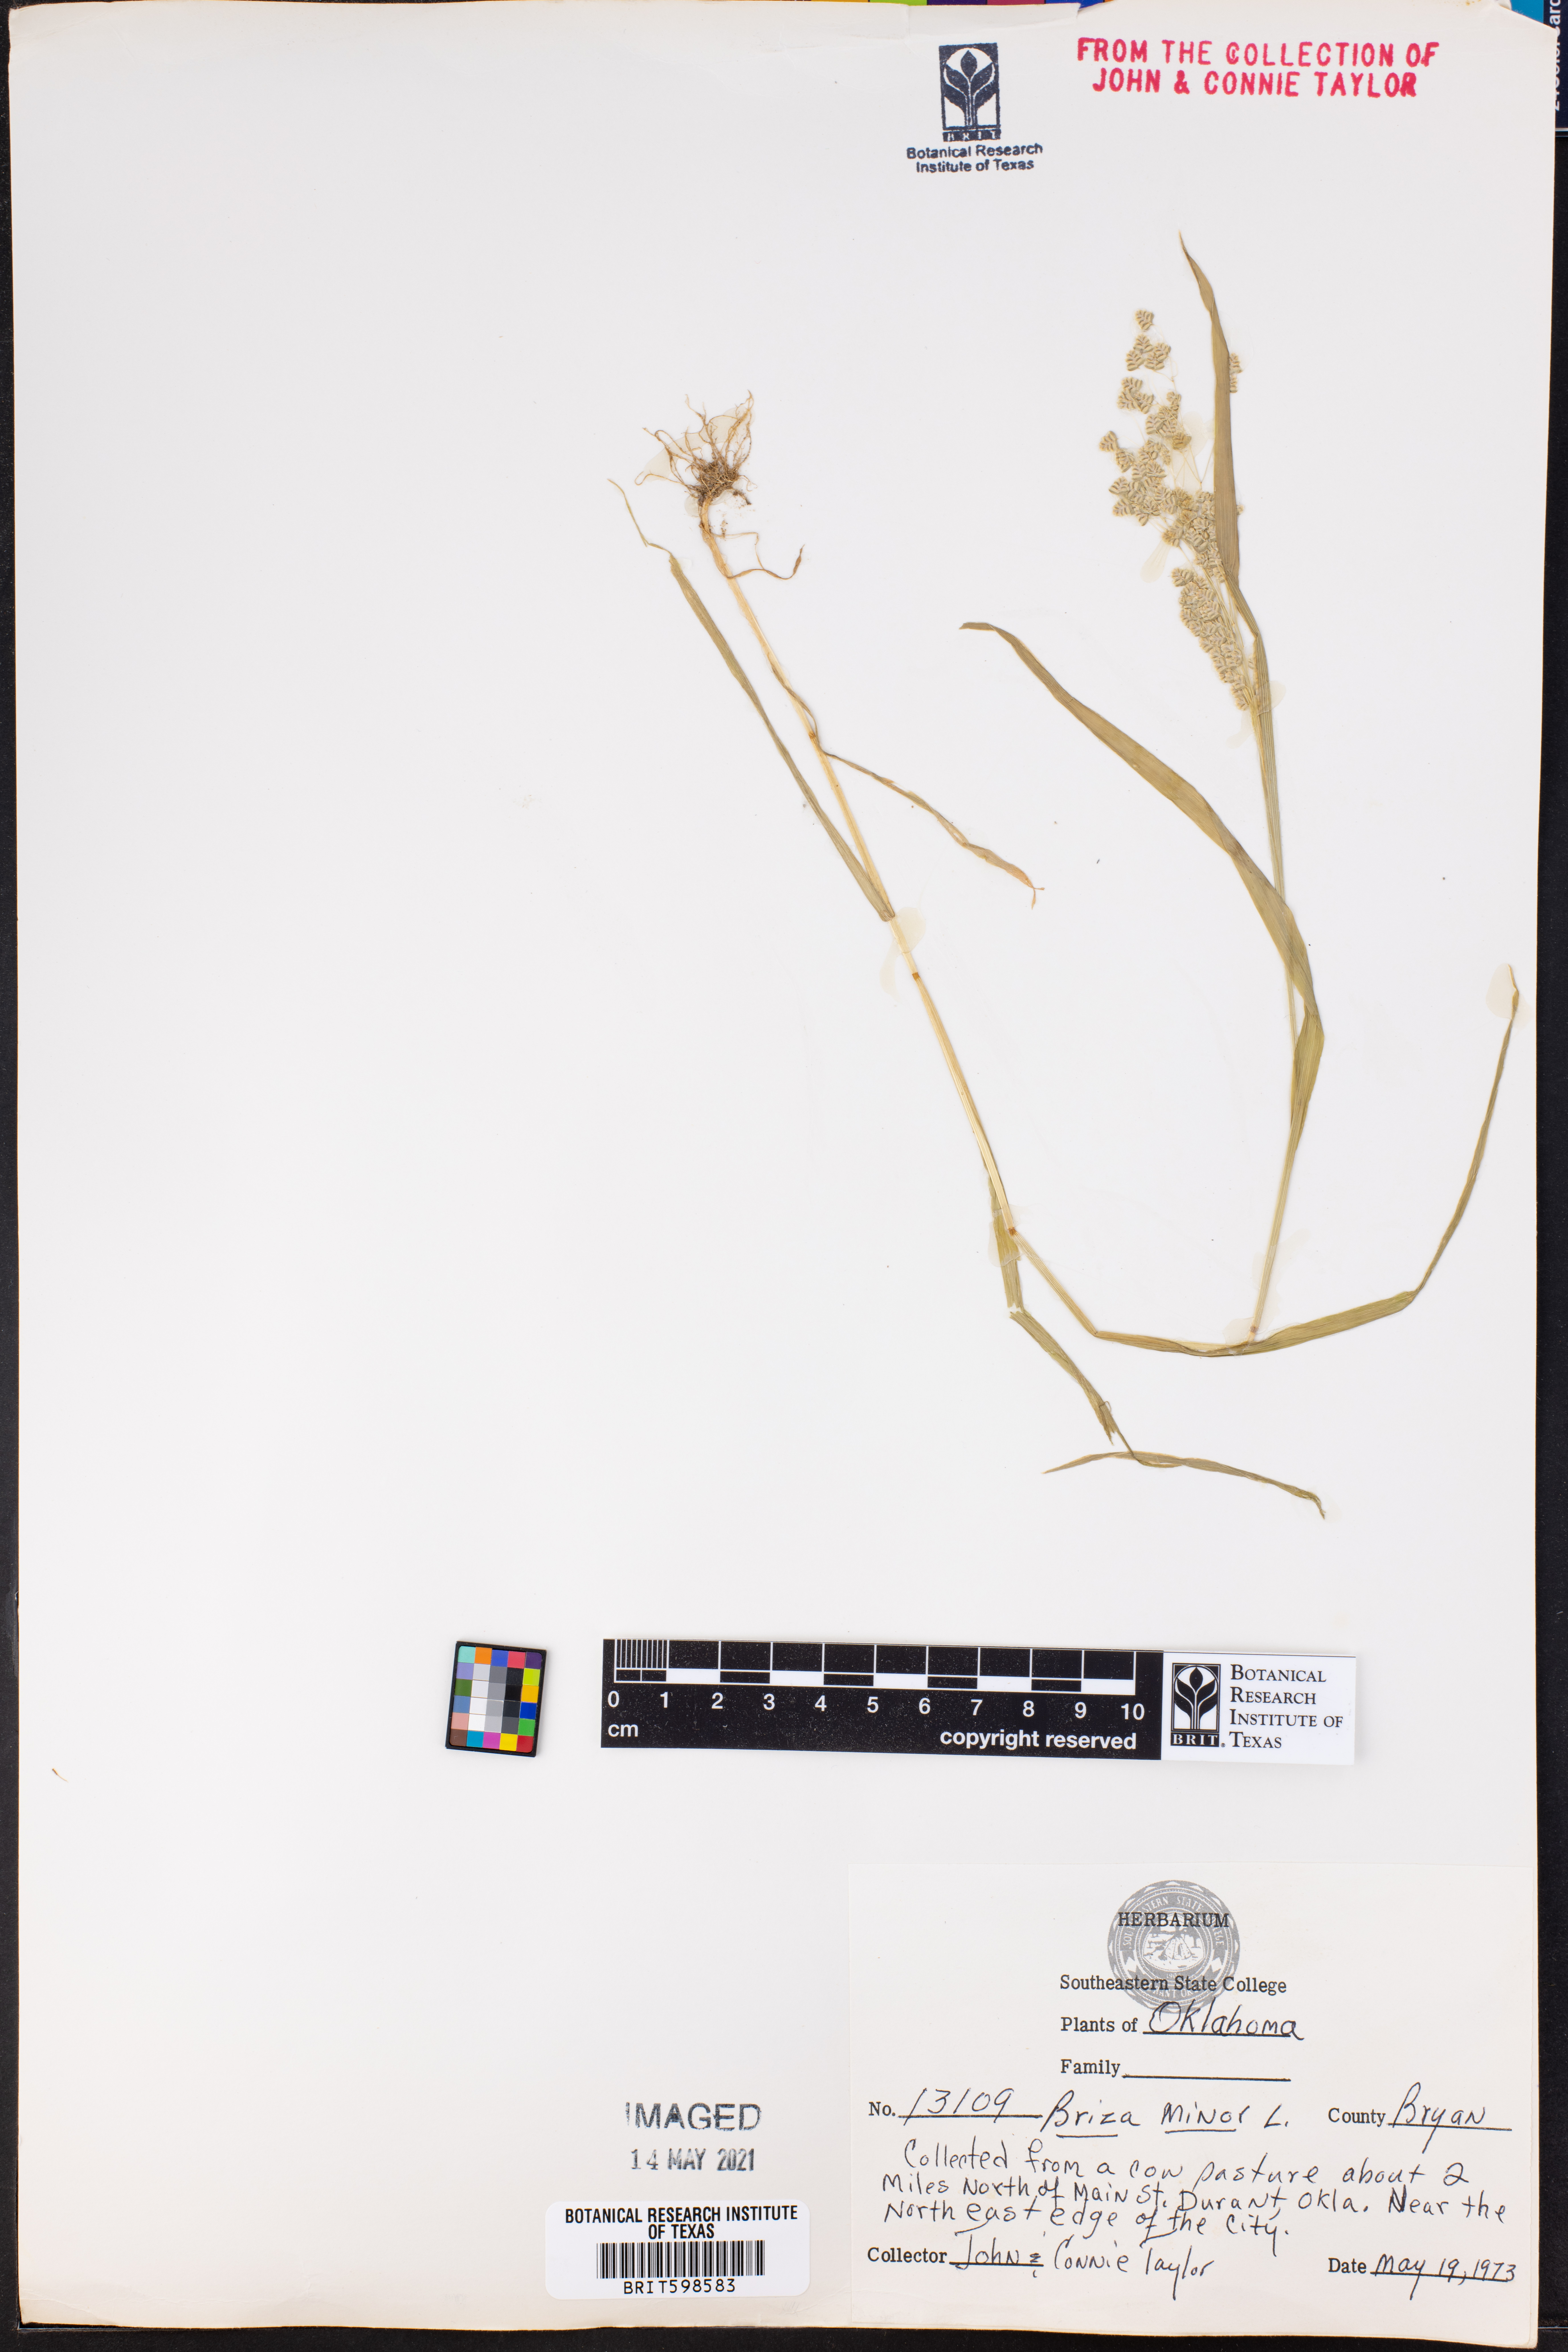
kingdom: Plantae
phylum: Tracheophyta
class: Liliopsida
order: Poales
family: Poaceae
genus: Briza
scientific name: Briza minor
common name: Lesser quaking-grass
